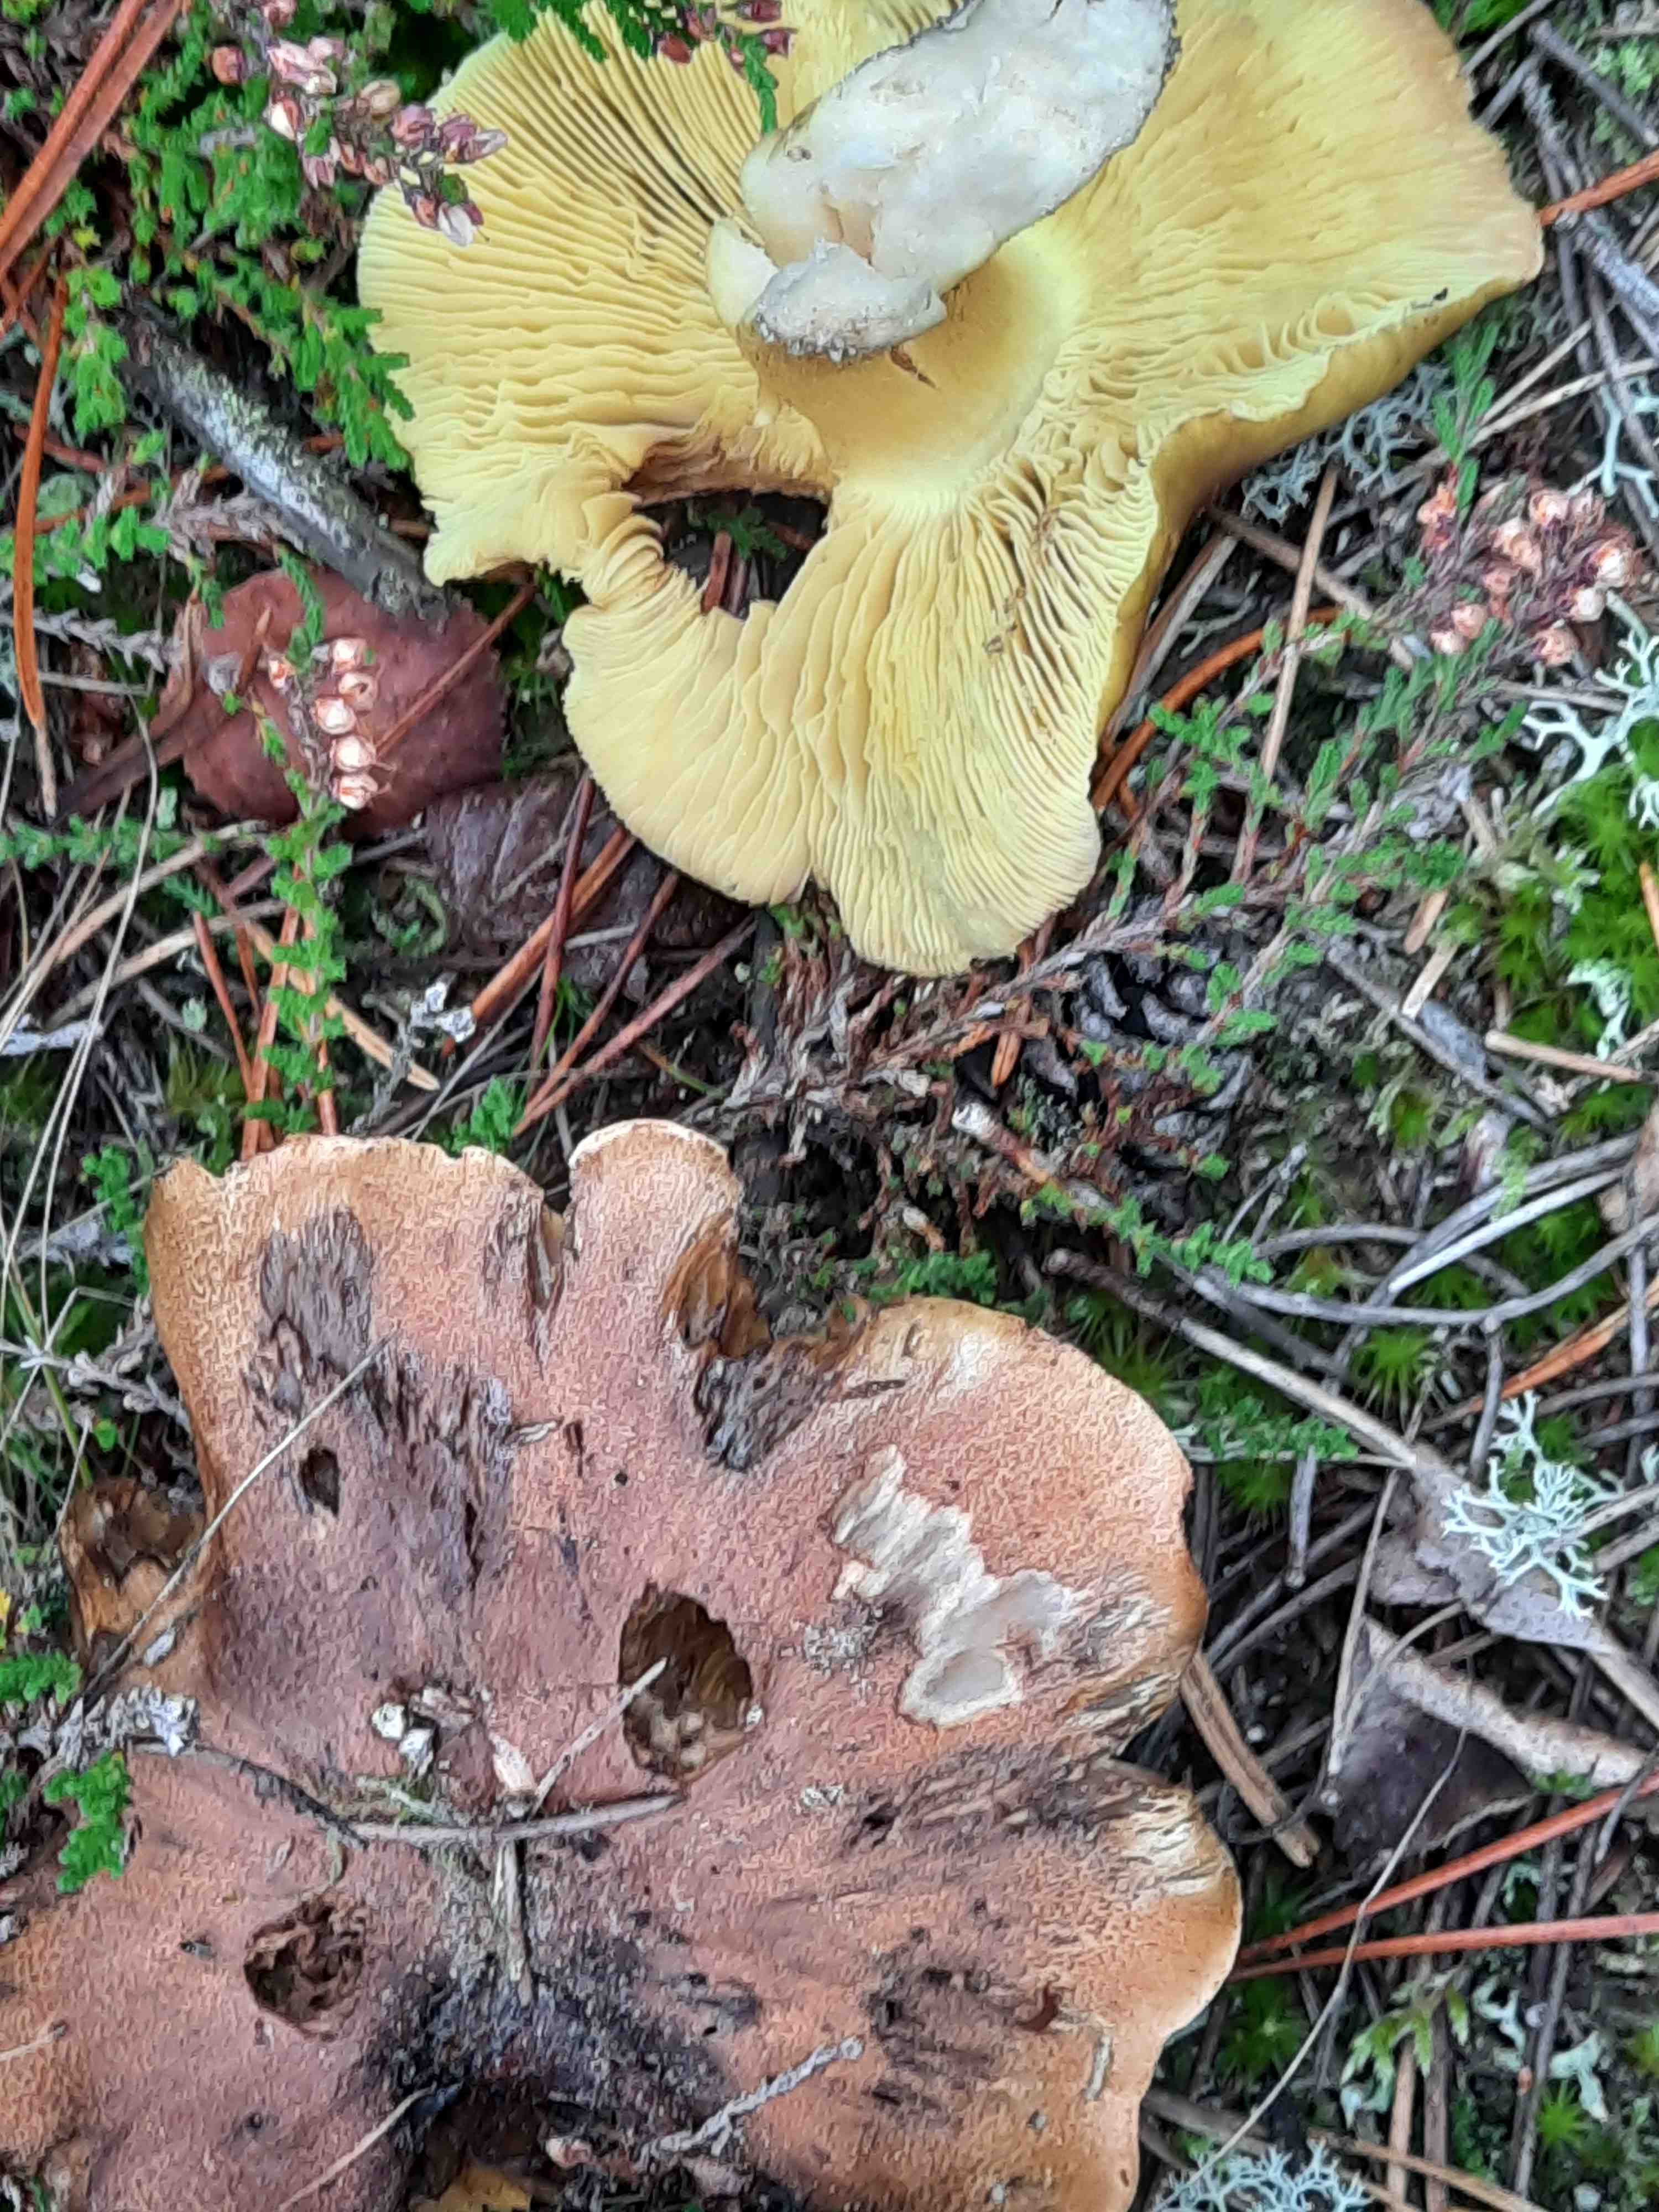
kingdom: Fungi
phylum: Basidiomycota
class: Agaricomycetes
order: Agaricales
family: Tricholomataceae
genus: Tricholoma
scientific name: Tricholoma equestre
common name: ægte ridderhat
